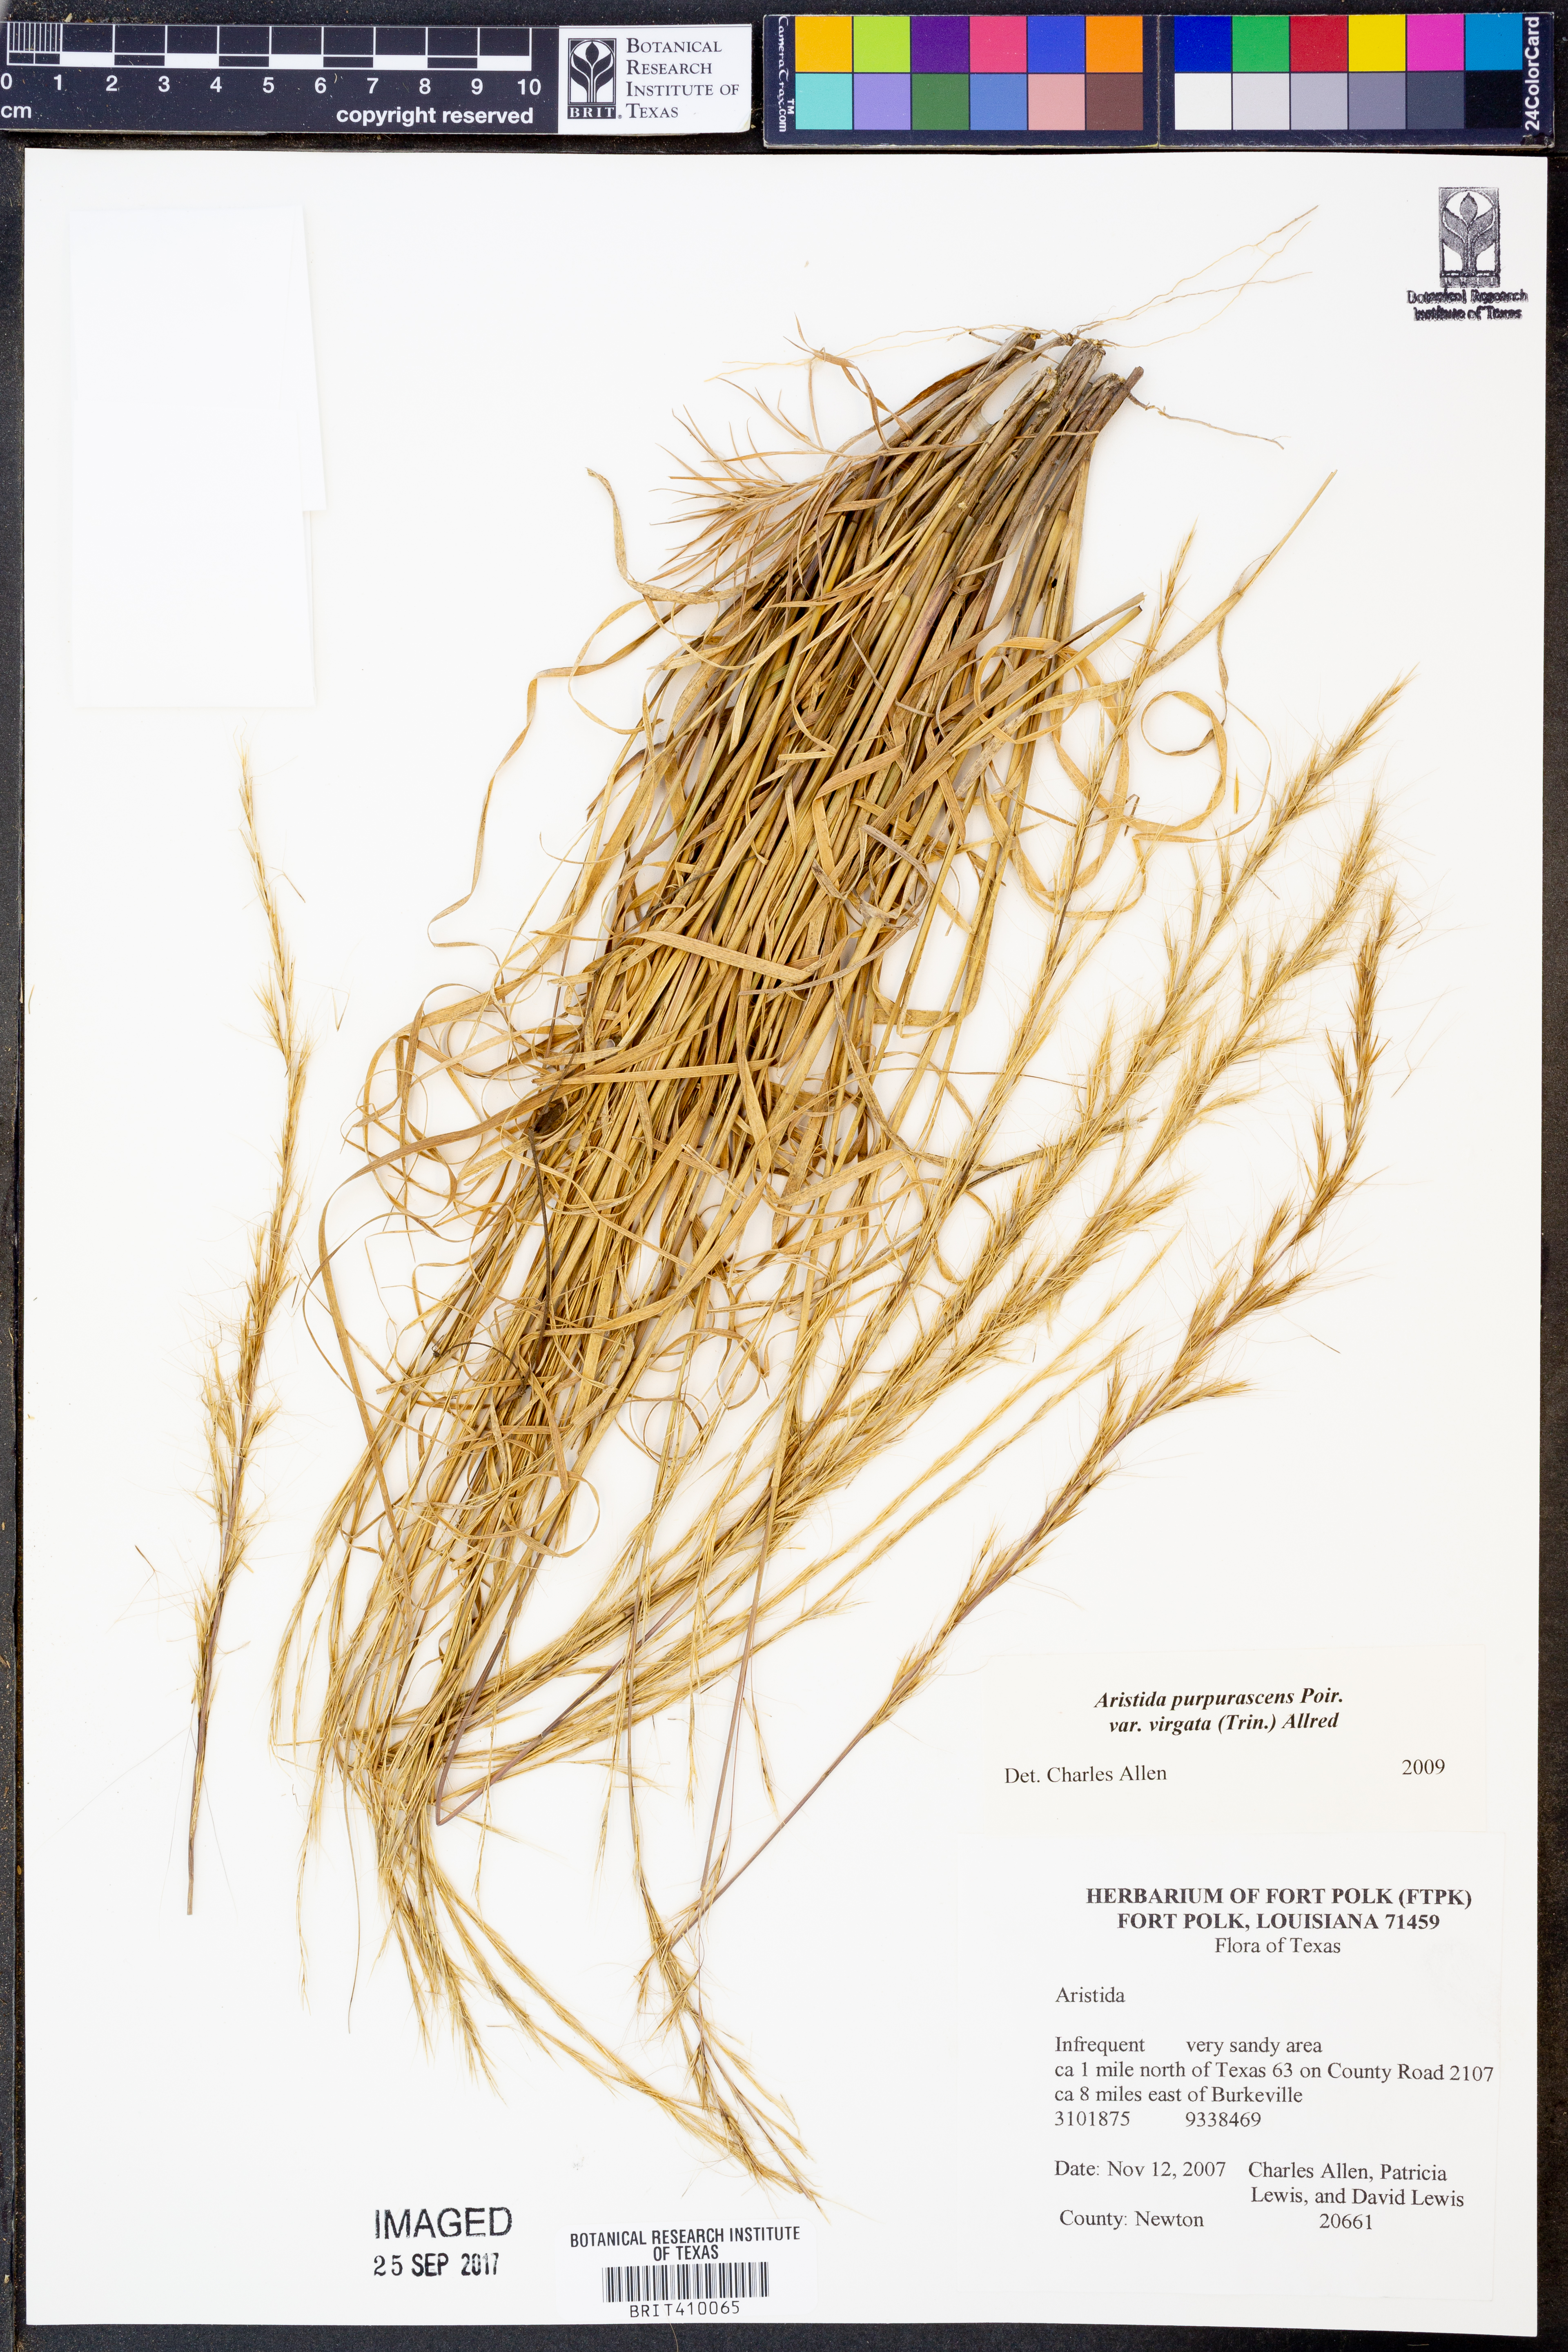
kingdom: Plantae
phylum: Tracheophyta
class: Liliopsida
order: Poales
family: Poaceae
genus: Aristida
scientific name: Aristida virgata
